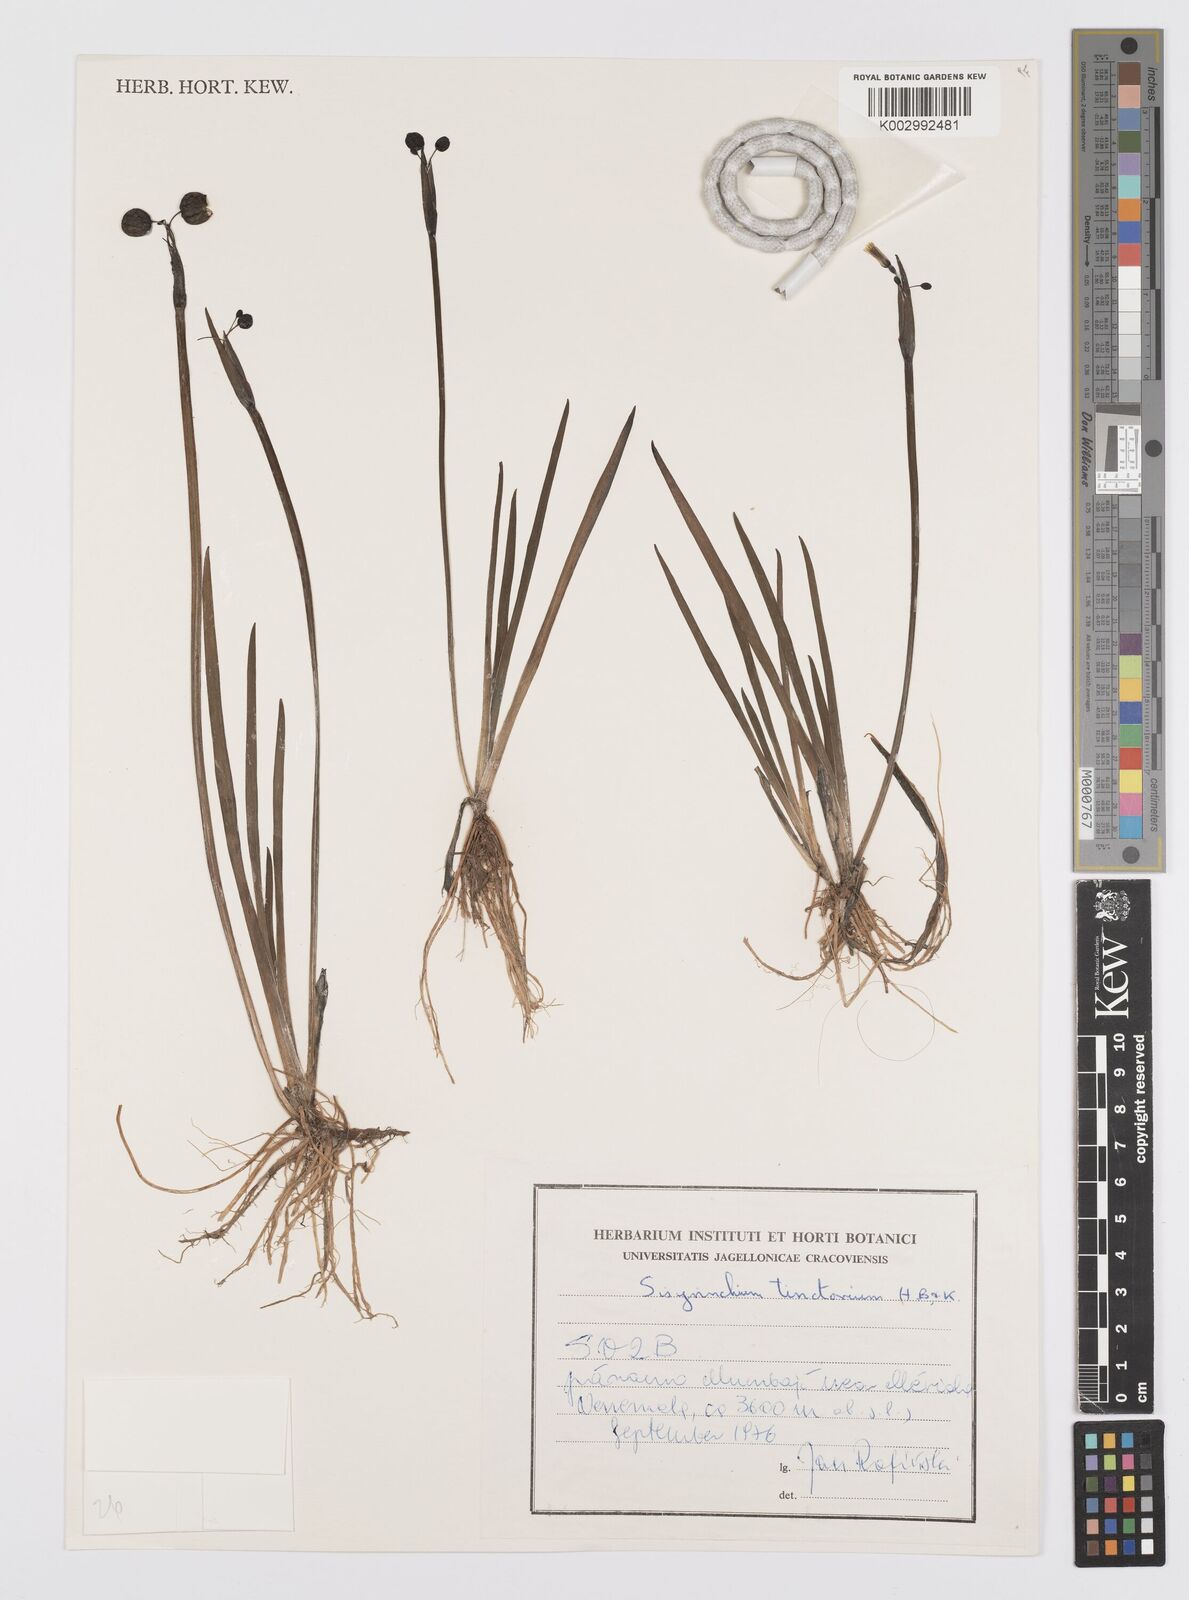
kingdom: Plantae
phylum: Tracheophyta
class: Liliopsida
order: Asparagales
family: Iridaceae
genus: Sisyrinchium
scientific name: Sisyrinchium tinctorium
